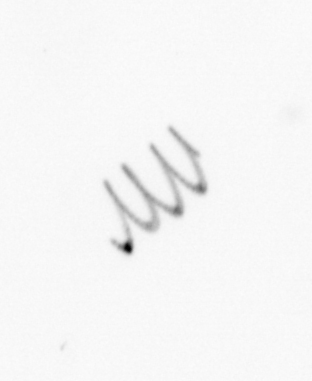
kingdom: Chromista
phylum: Ochrophyta
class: Bacillariophyceae
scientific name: Bacillariophyceae
